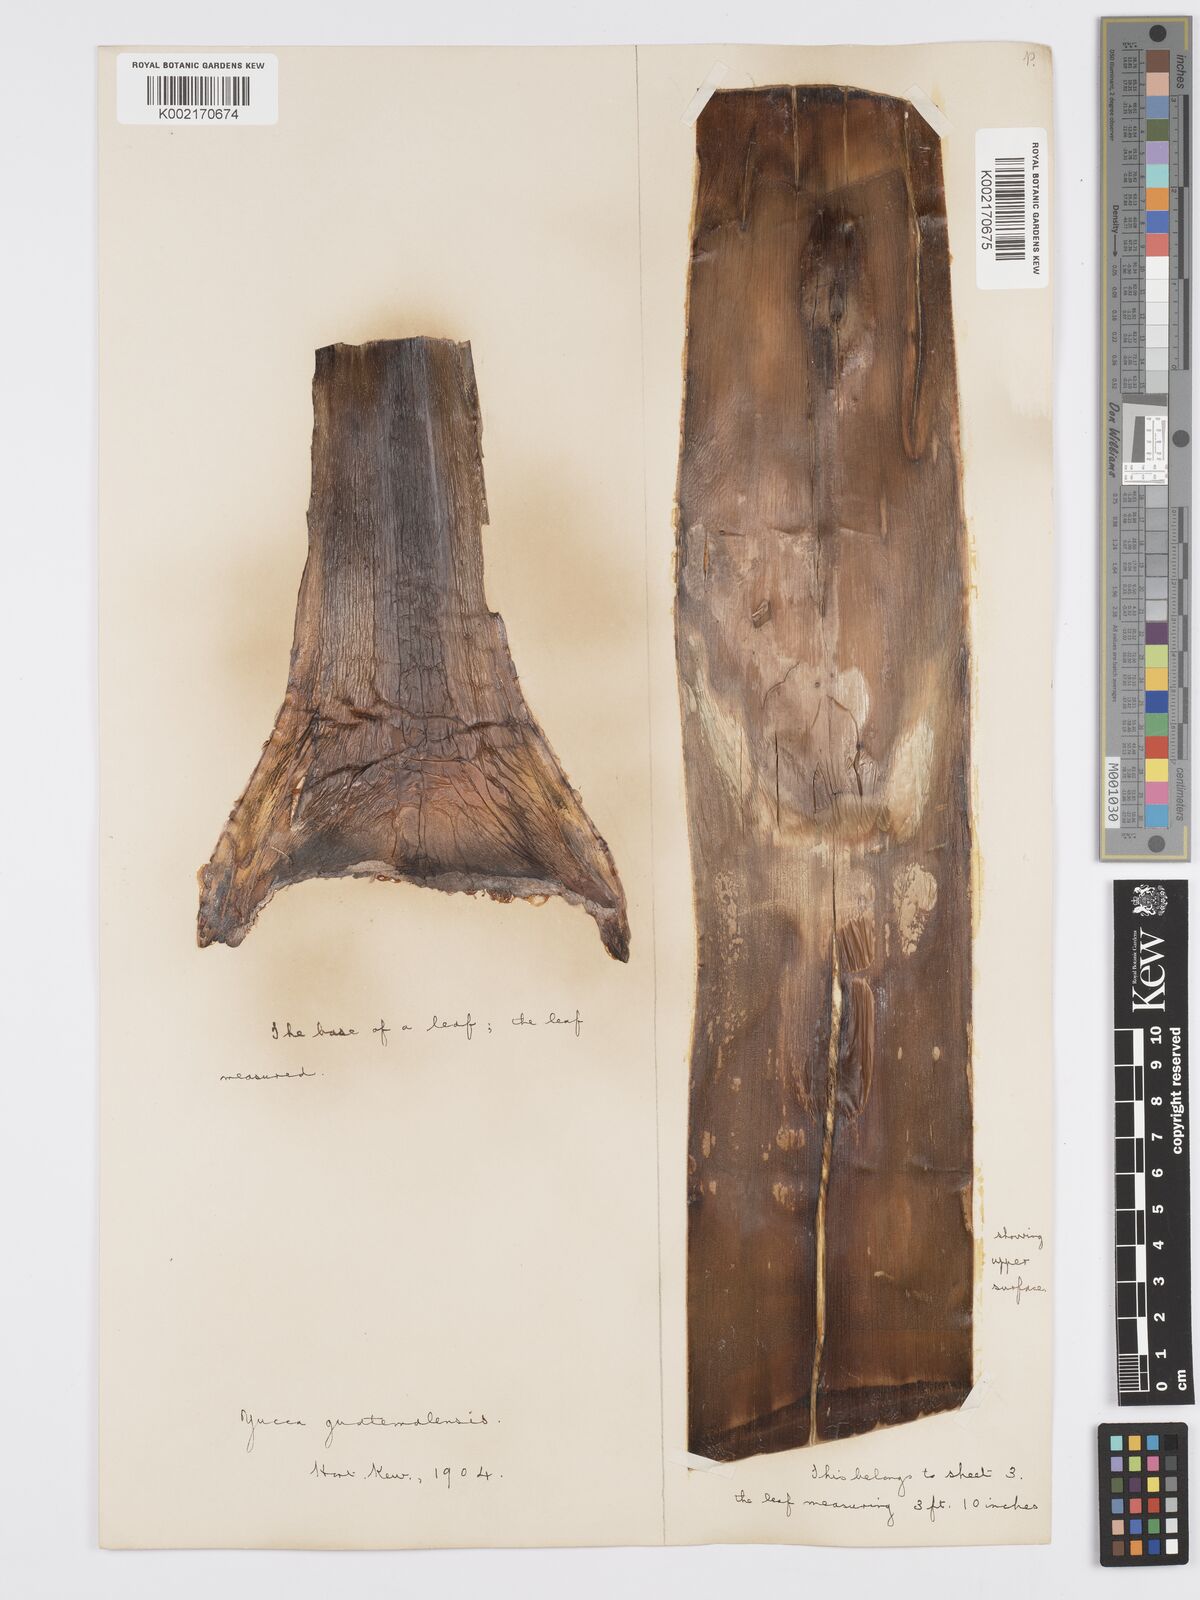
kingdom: Plantae
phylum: Tracheophyta
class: Liliopsida
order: Asparagales
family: Asparagaceae
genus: Yucca
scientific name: Yucca gigantea
